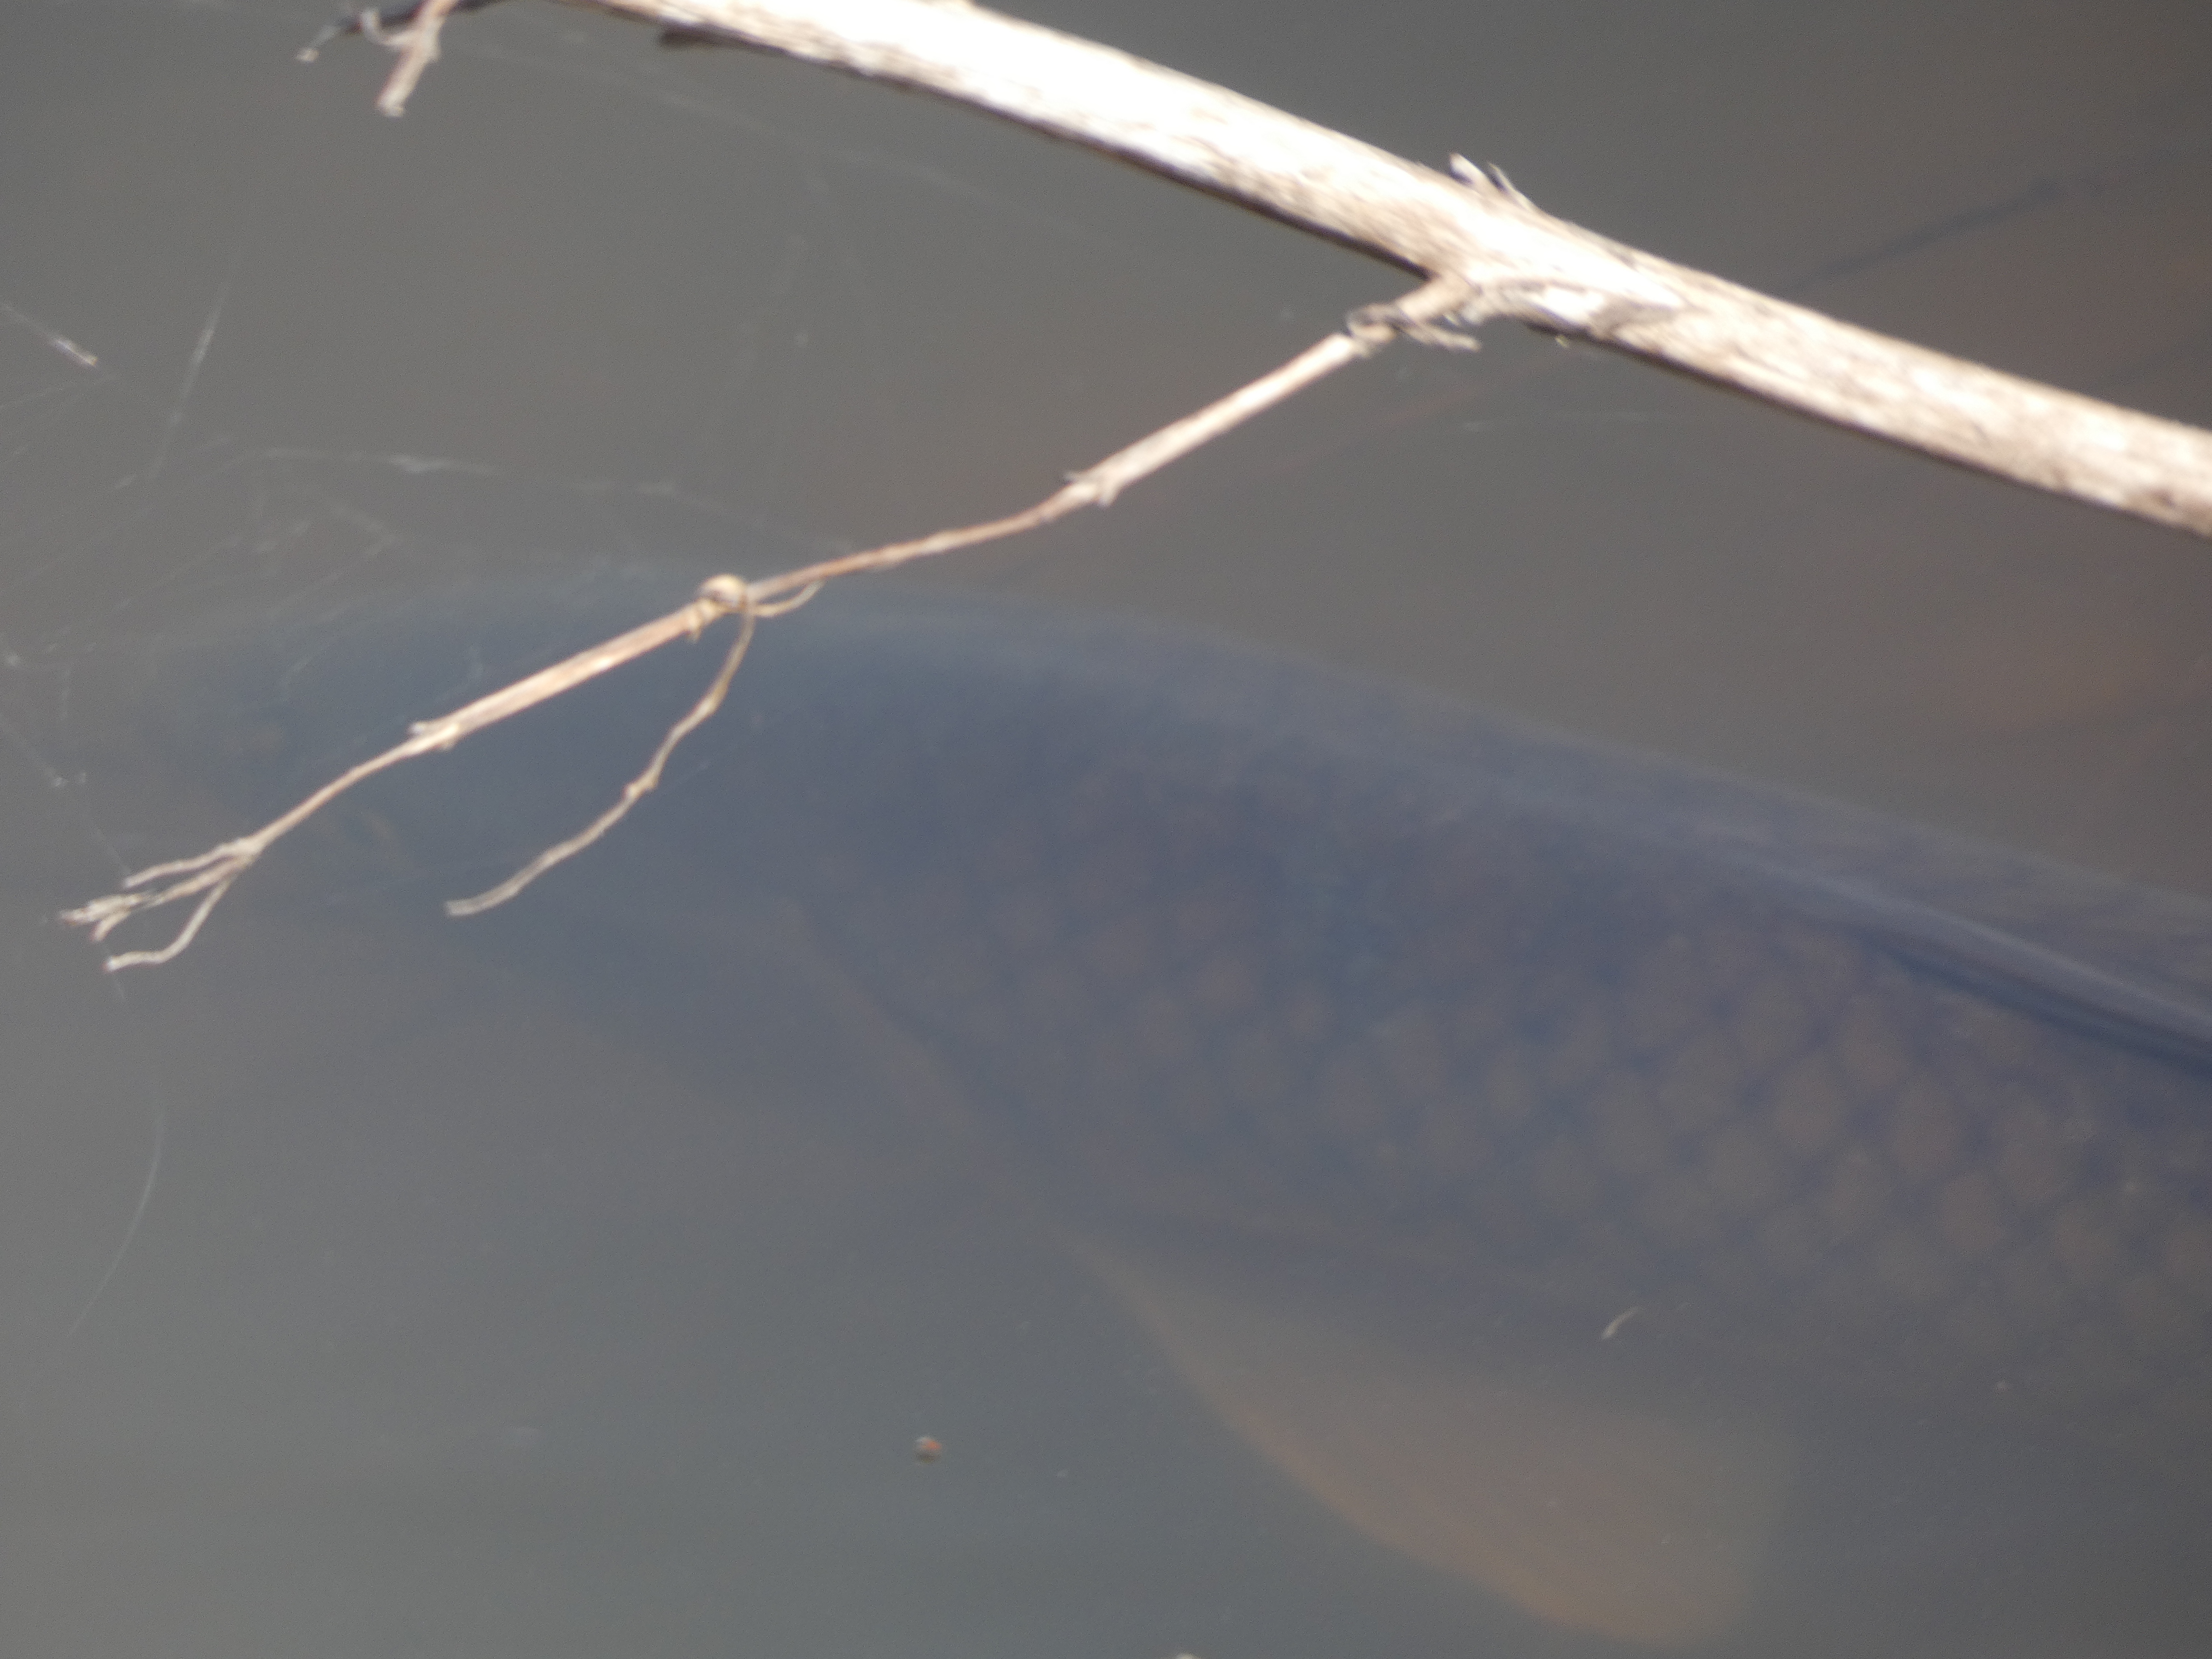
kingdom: Animalia
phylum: Chordata
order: Cypriniformes
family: Cyprinidae
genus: Cyprinus
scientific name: Cyprinus carpio
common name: Karpe
